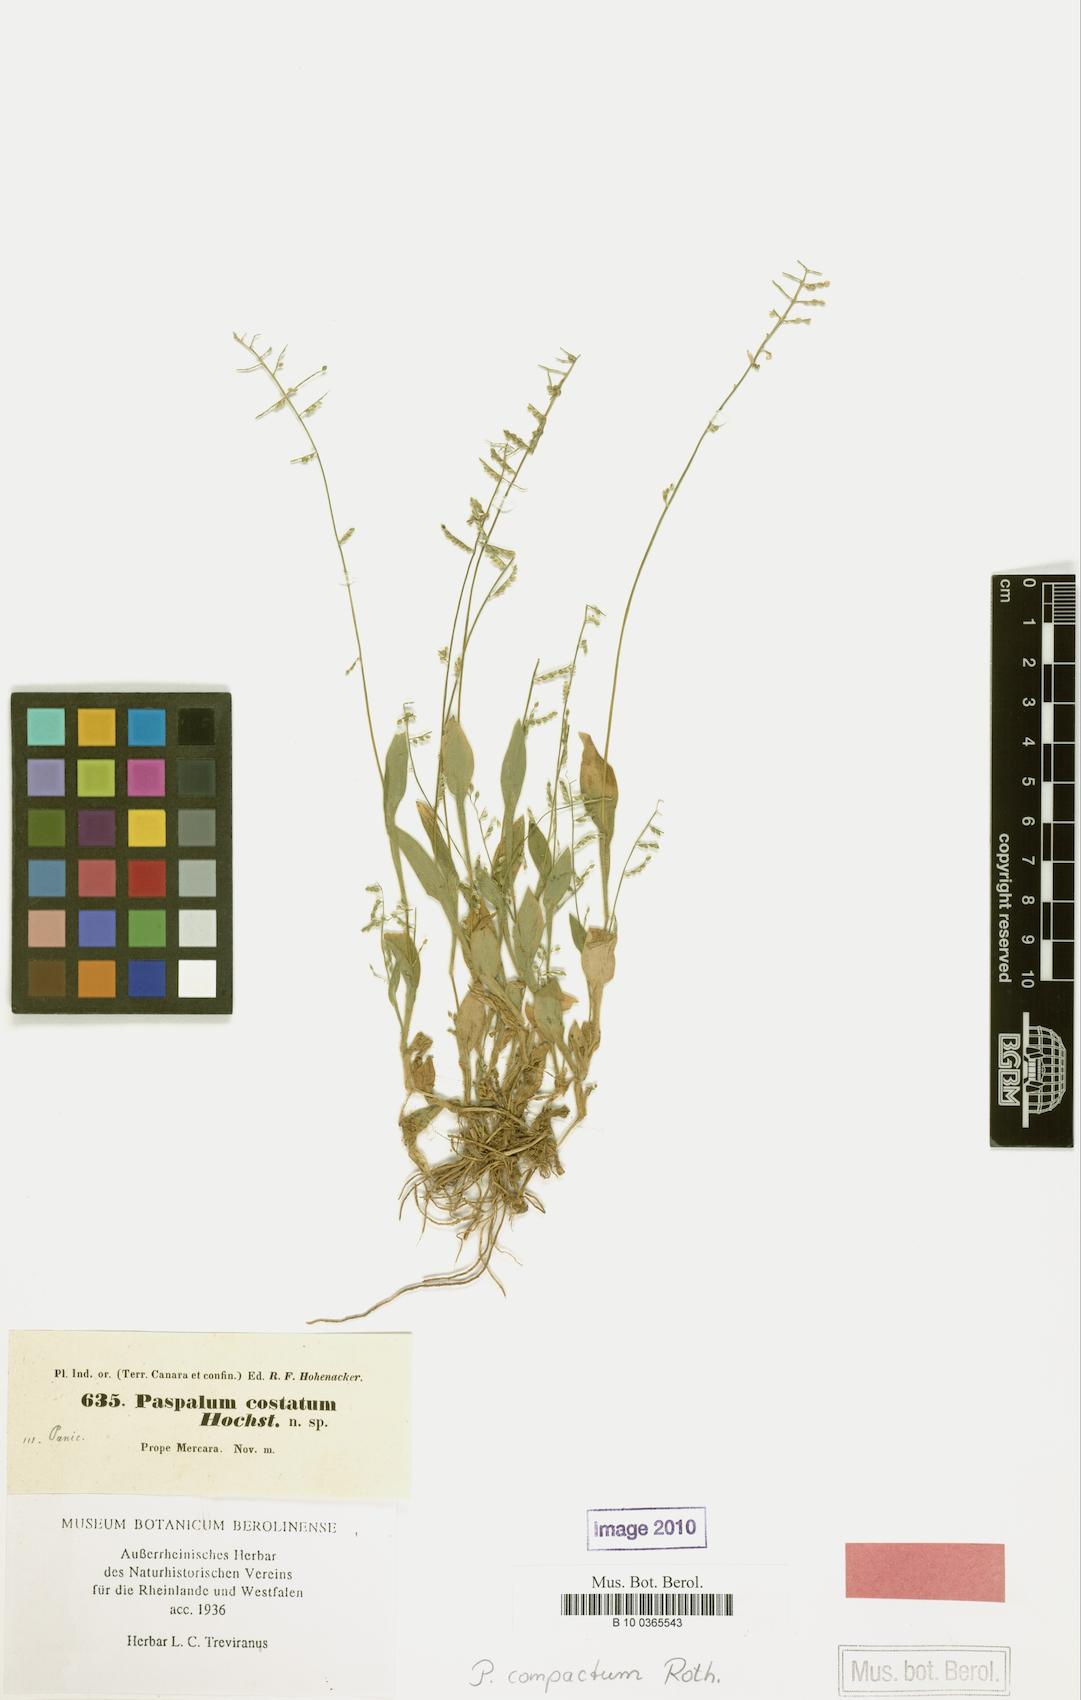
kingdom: Plantae
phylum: Tracheophyta
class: Liliopsida
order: Poales
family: Poaceae
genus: Paspalum
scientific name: Paspalum canarae
